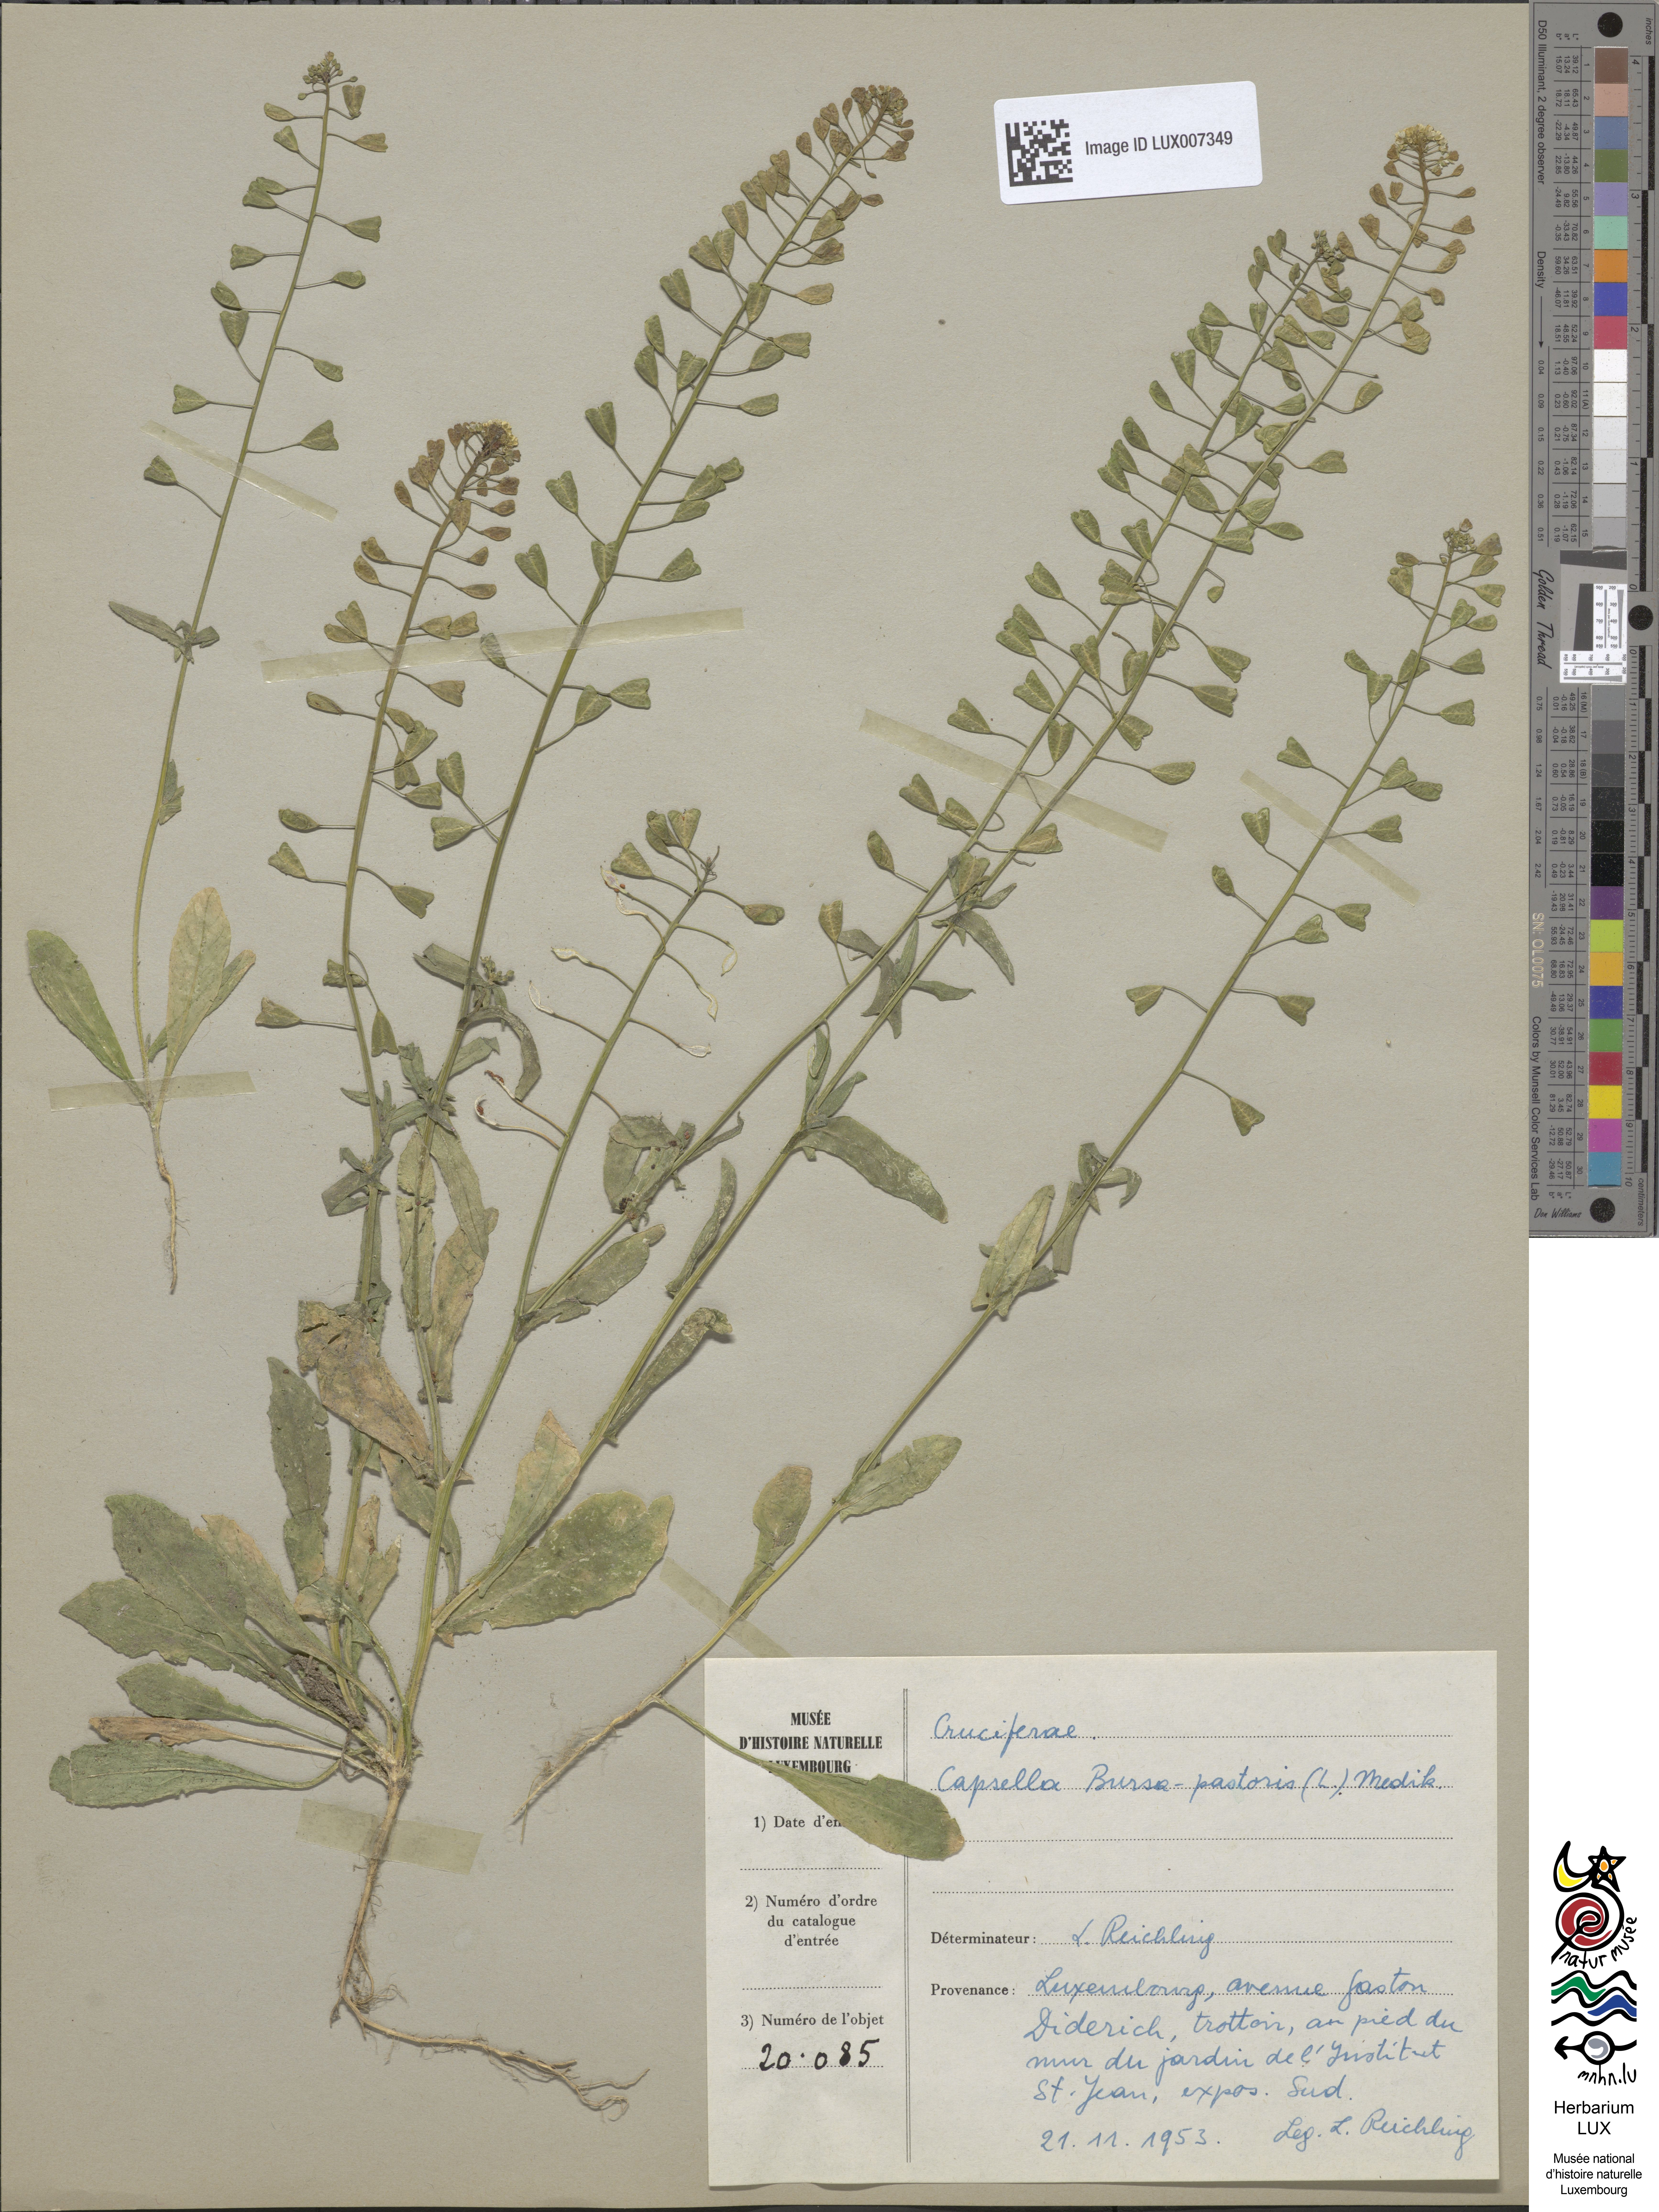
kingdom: Plantae
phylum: Tracheophyta
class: Magnoliopsida
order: Brassicales
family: Brassicaceae
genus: Capsella
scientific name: Capsella bursa-pastoris
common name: Shepherd's purse
